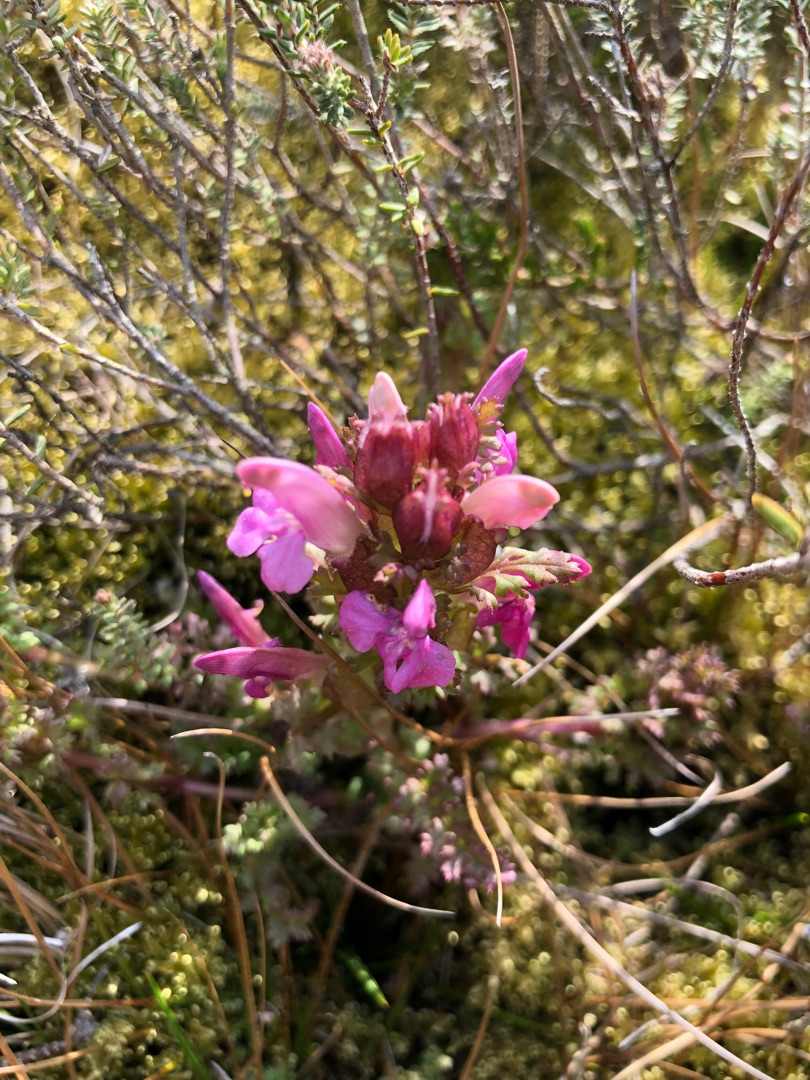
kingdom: Plantae
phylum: Tracheophyta
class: Magnoliopsida
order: Lamiales
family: Orobanchaceae
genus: Pedicularis
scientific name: Pedicularis sylvatica
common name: Mose-troldurt
